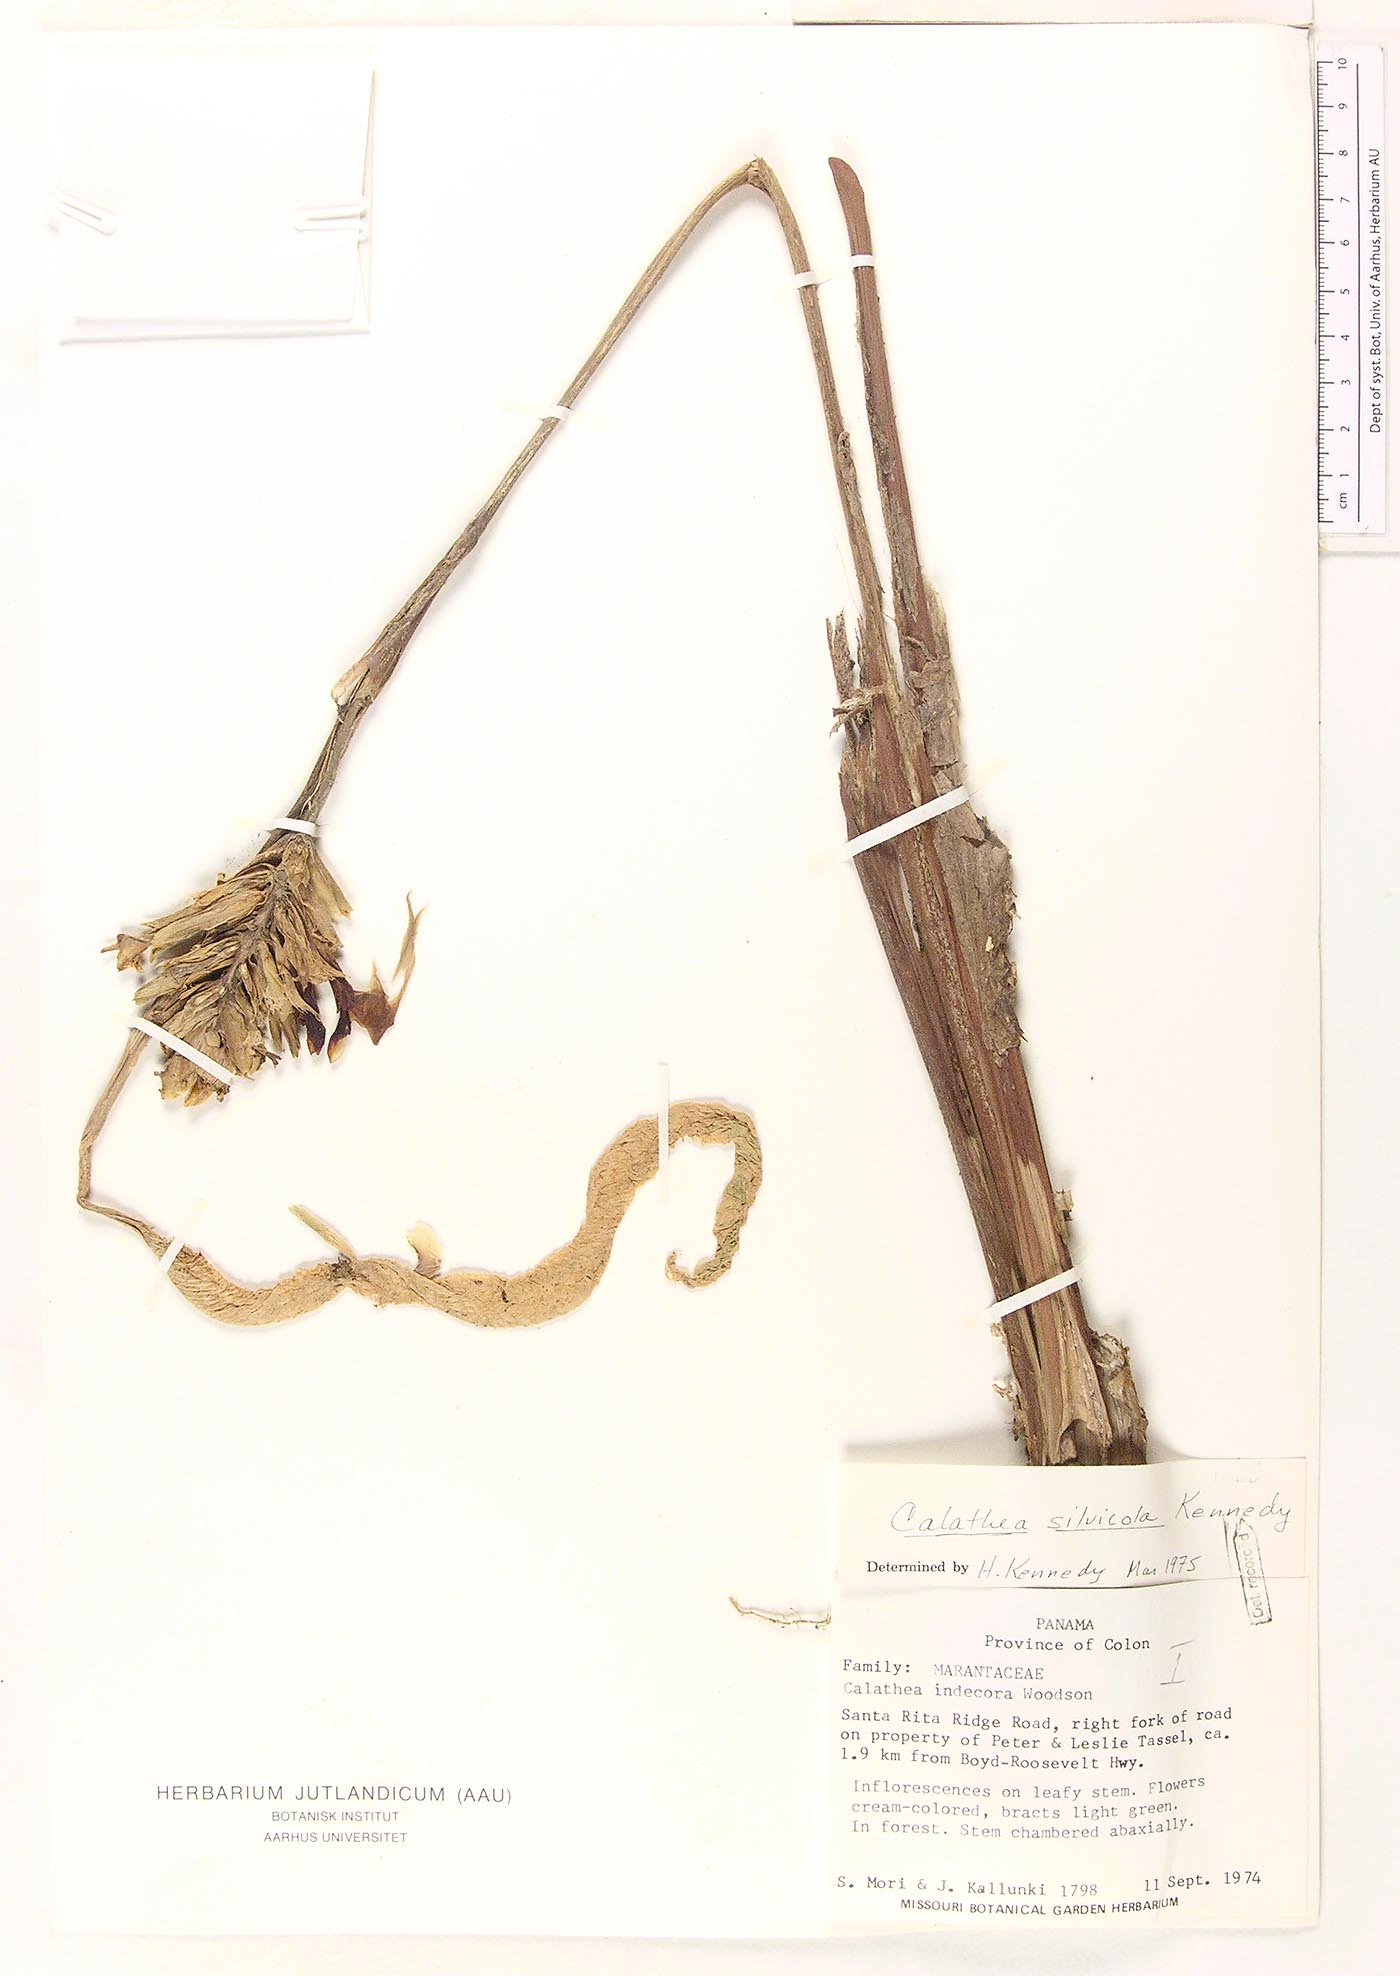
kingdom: Plantae
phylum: Tracheophyta
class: Liliopsida
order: Zingiberales
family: Marantaceae
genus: Goeppertia
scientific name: Goeppertia silvicola
